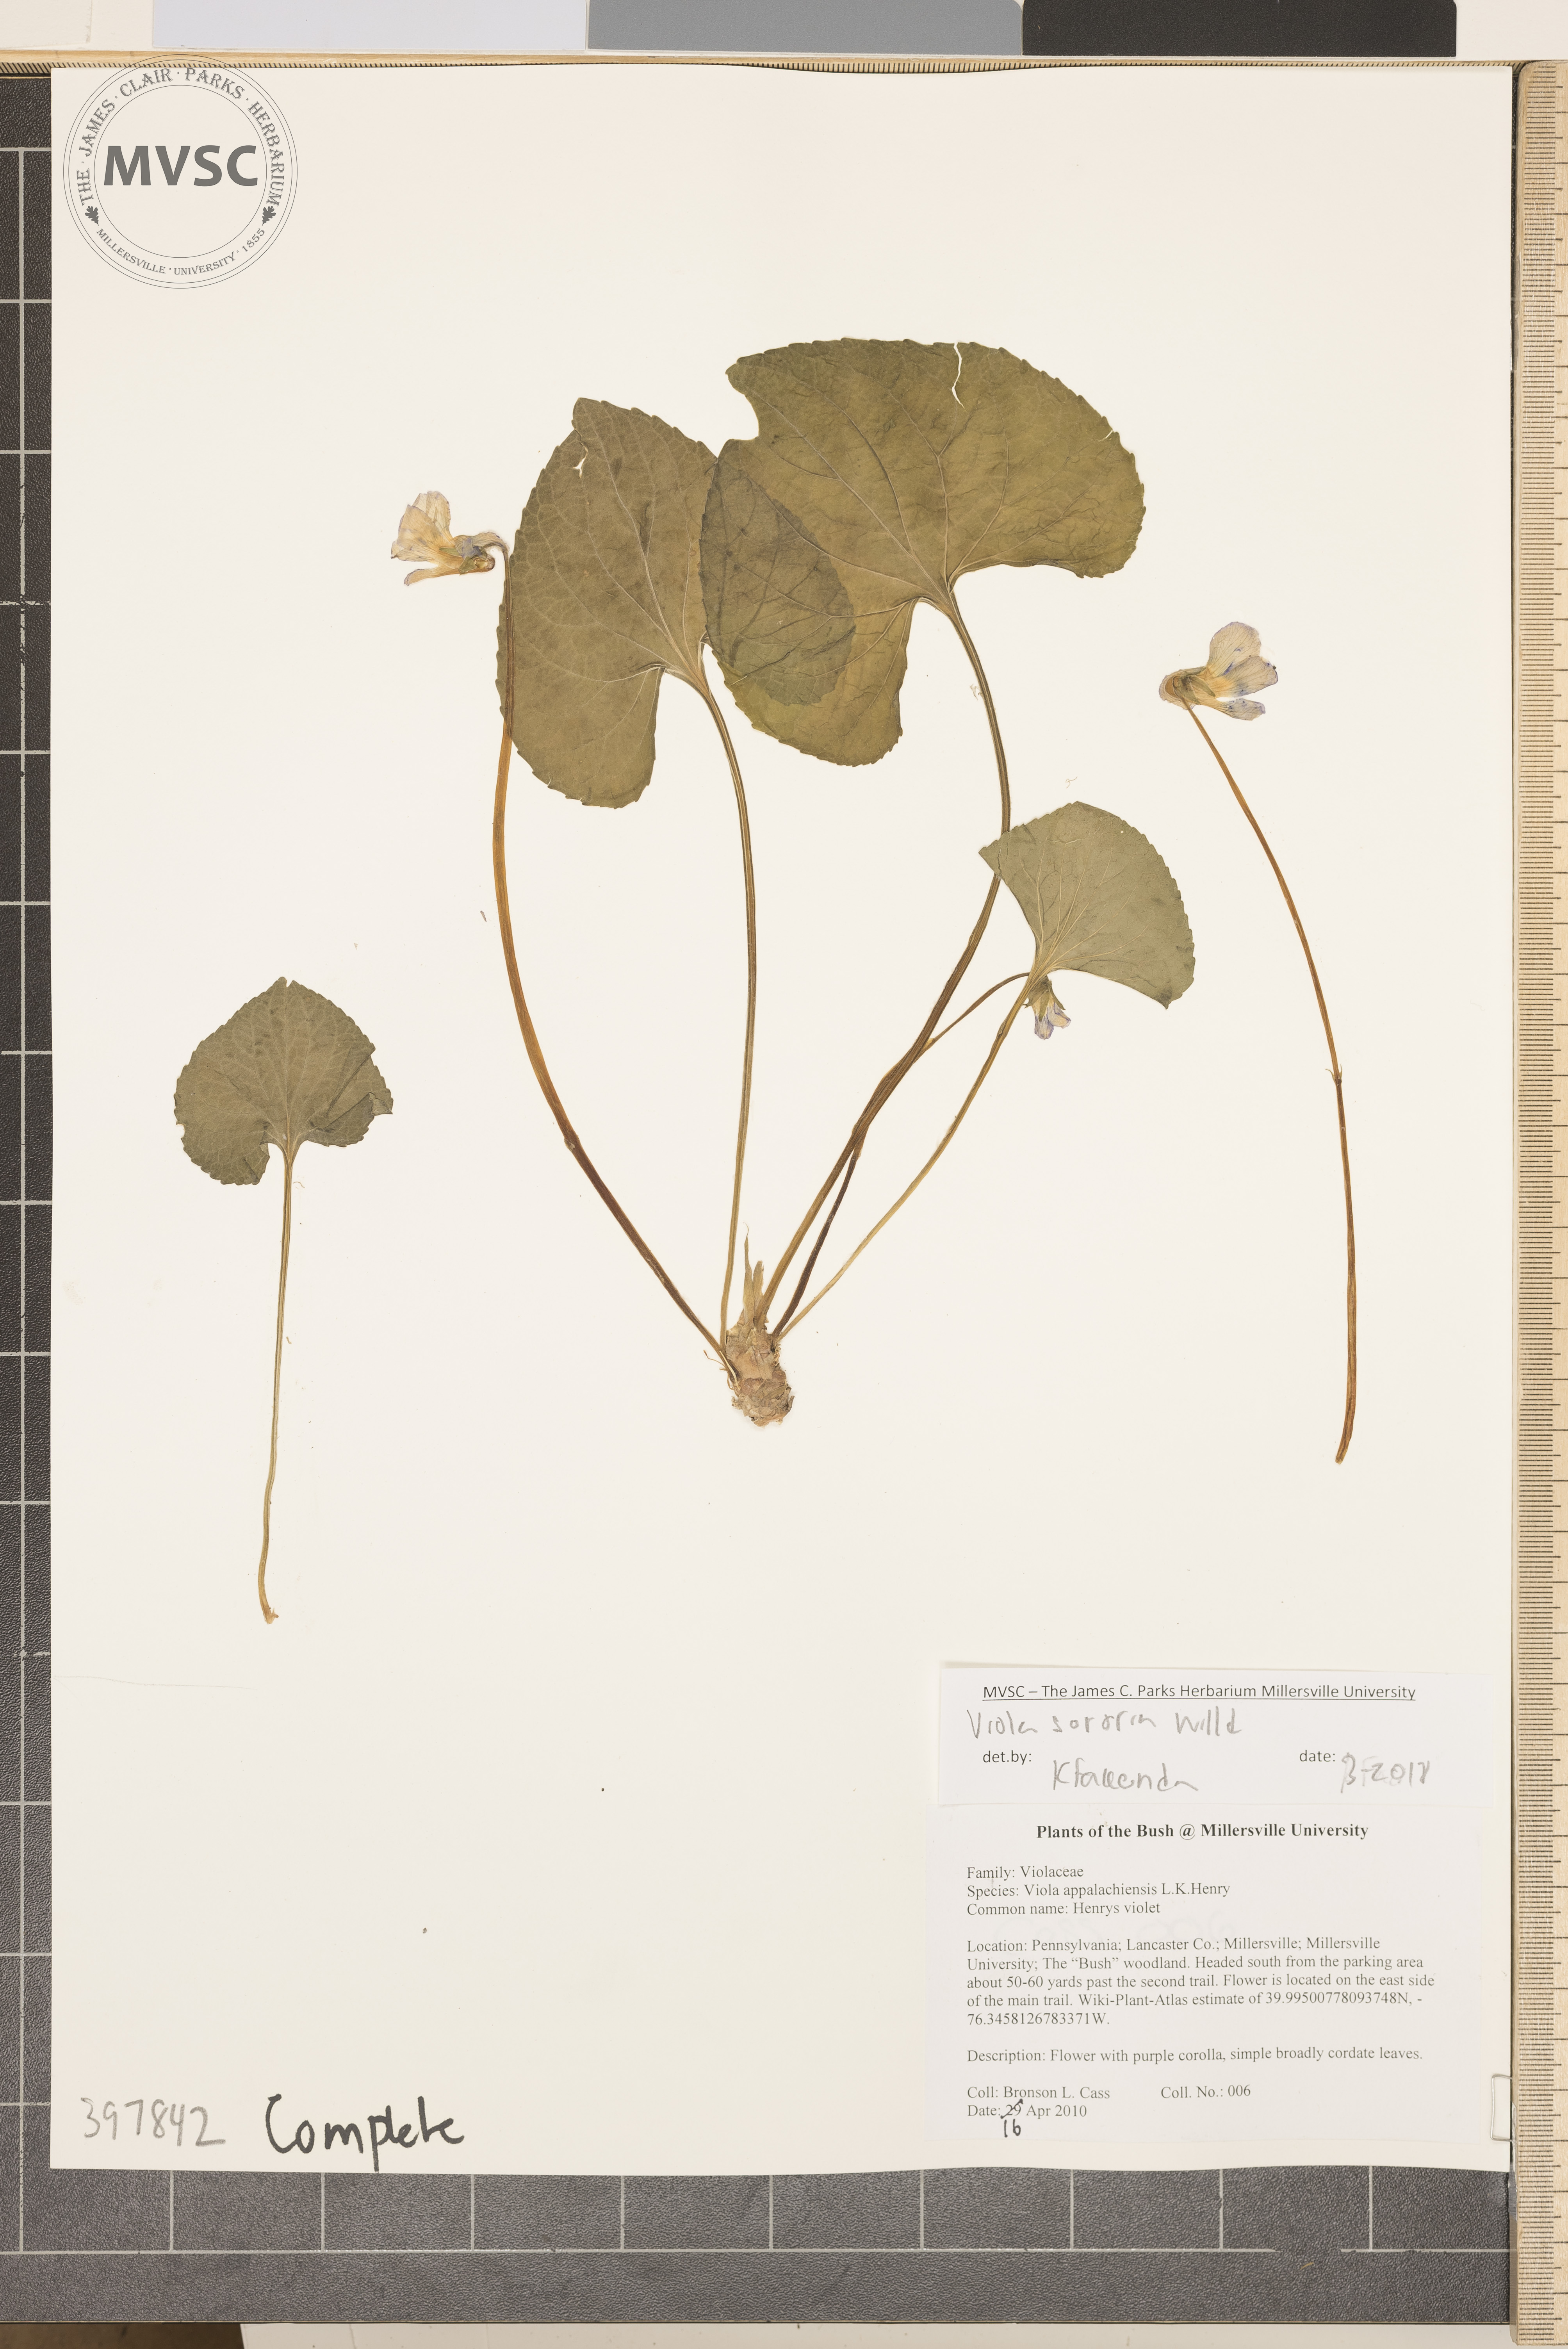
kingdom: Plantae
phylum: Tracheophyta
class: Magnoliopsida
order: Malpighiales
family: Violaceae
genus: Viola
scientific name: Viola sororia
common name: Violet
